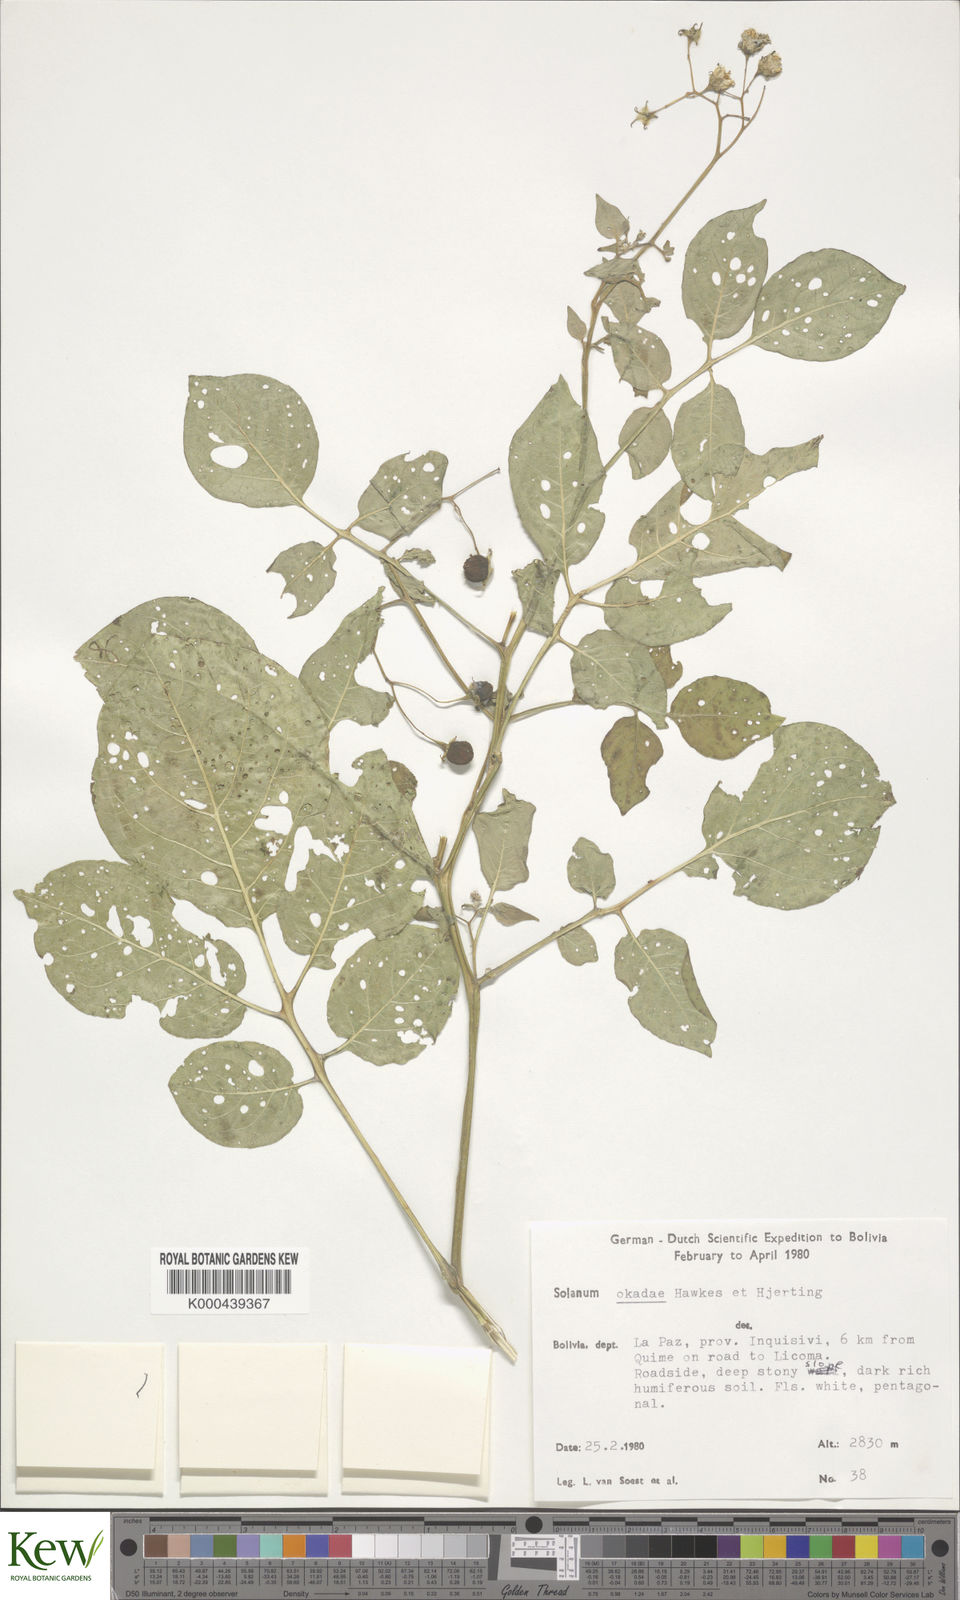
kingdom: Plantae
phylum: Tracheophyta
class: Magnoliopsida
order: Solanales
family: Solanaceae
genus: Solanum
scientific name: Solanum okadae
